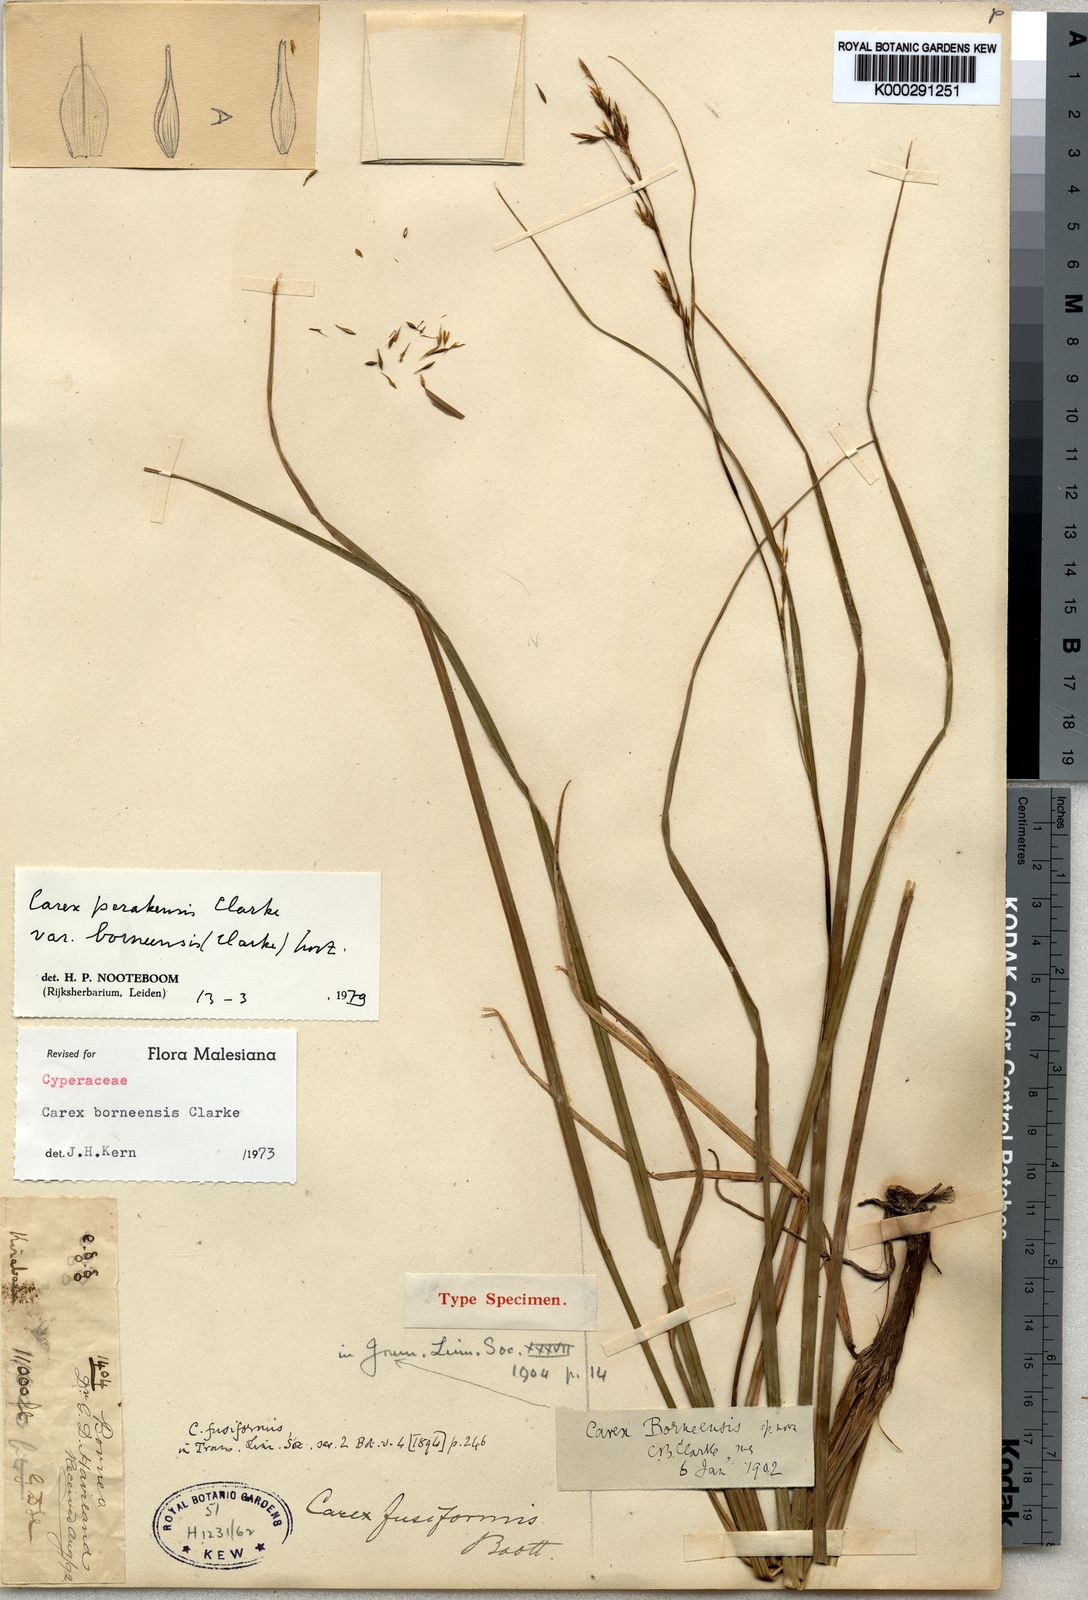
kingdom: Plantae
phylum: Tracheophyta
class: Liliopsida
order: Poales
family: Cyperaceae
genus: Carex
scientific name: Carex perakensis
